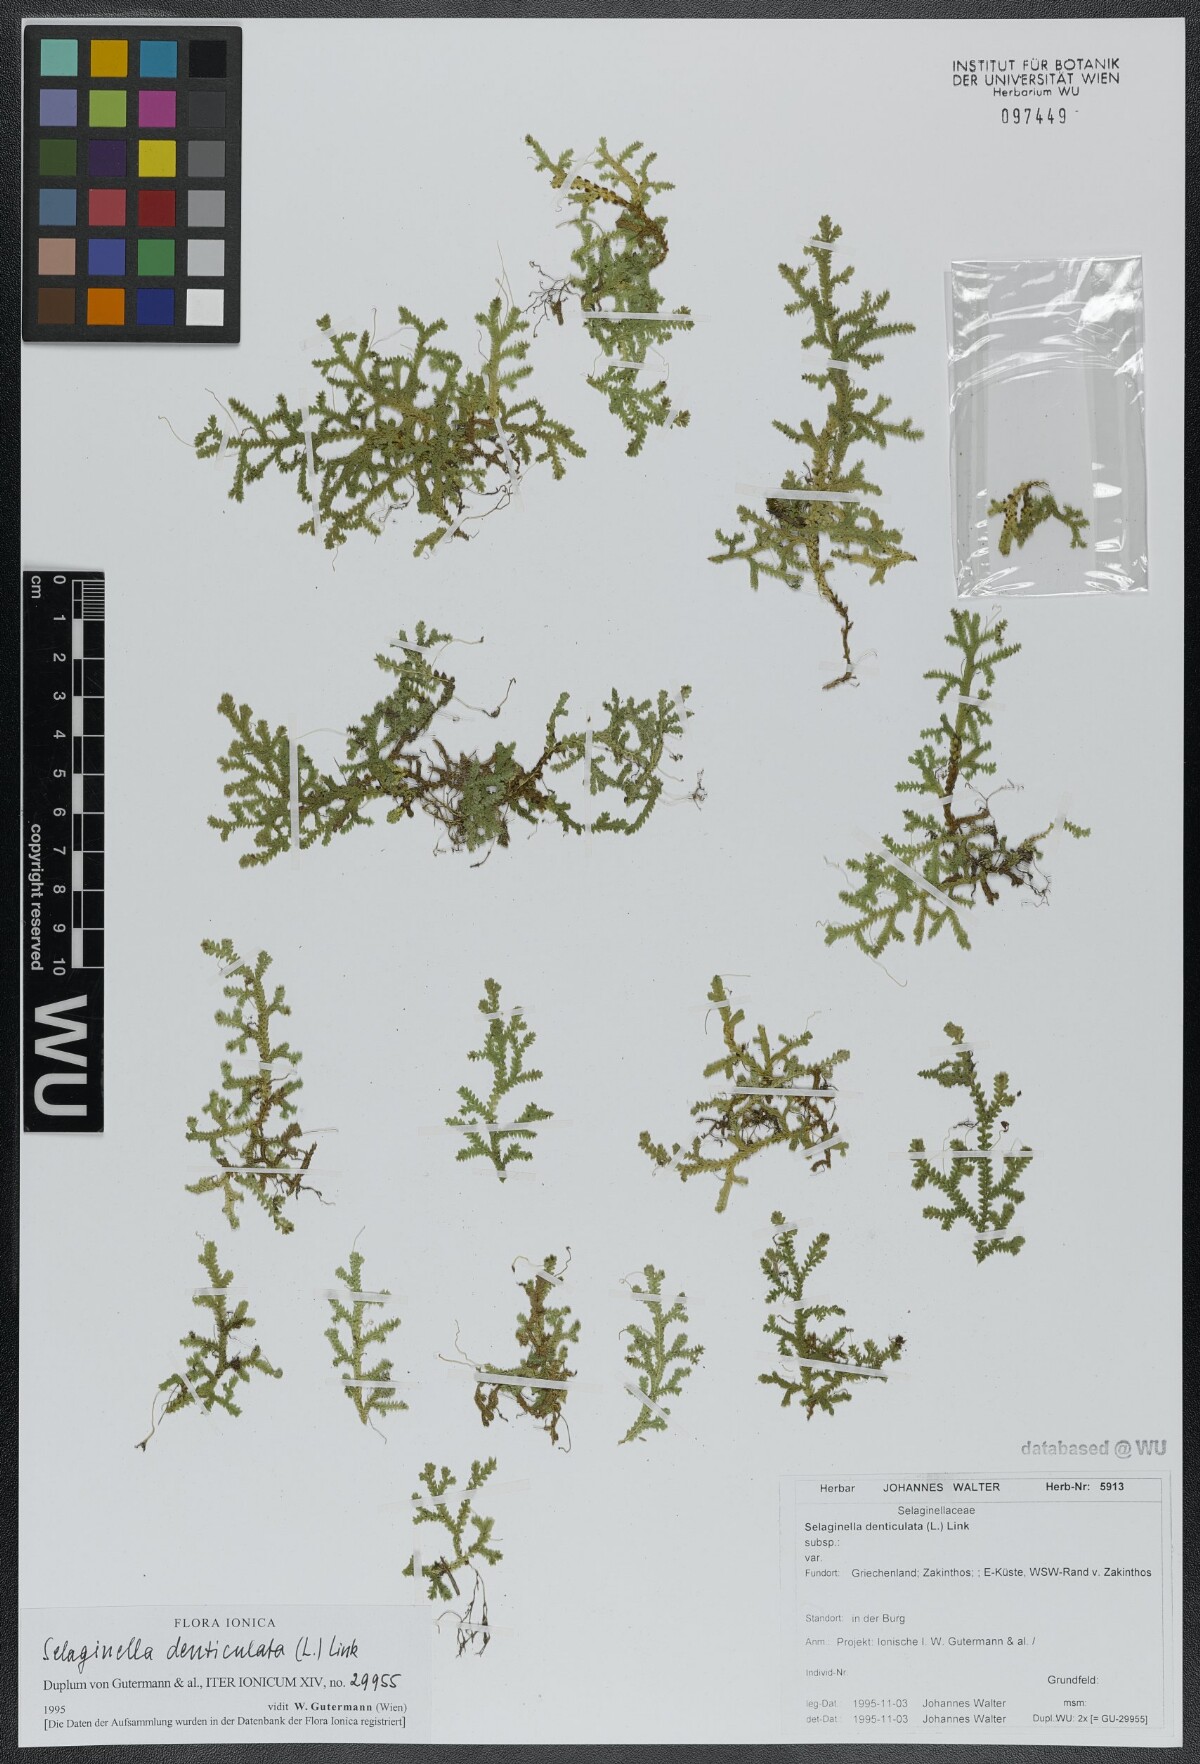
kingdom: Plantae
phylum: Tracheophyta
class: Lycopodiopsida
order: Selaginellales
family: Selaginellaceae
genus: Selaginella
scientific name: Selaginella denticulata
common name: Toothed-leaved clubmoss
